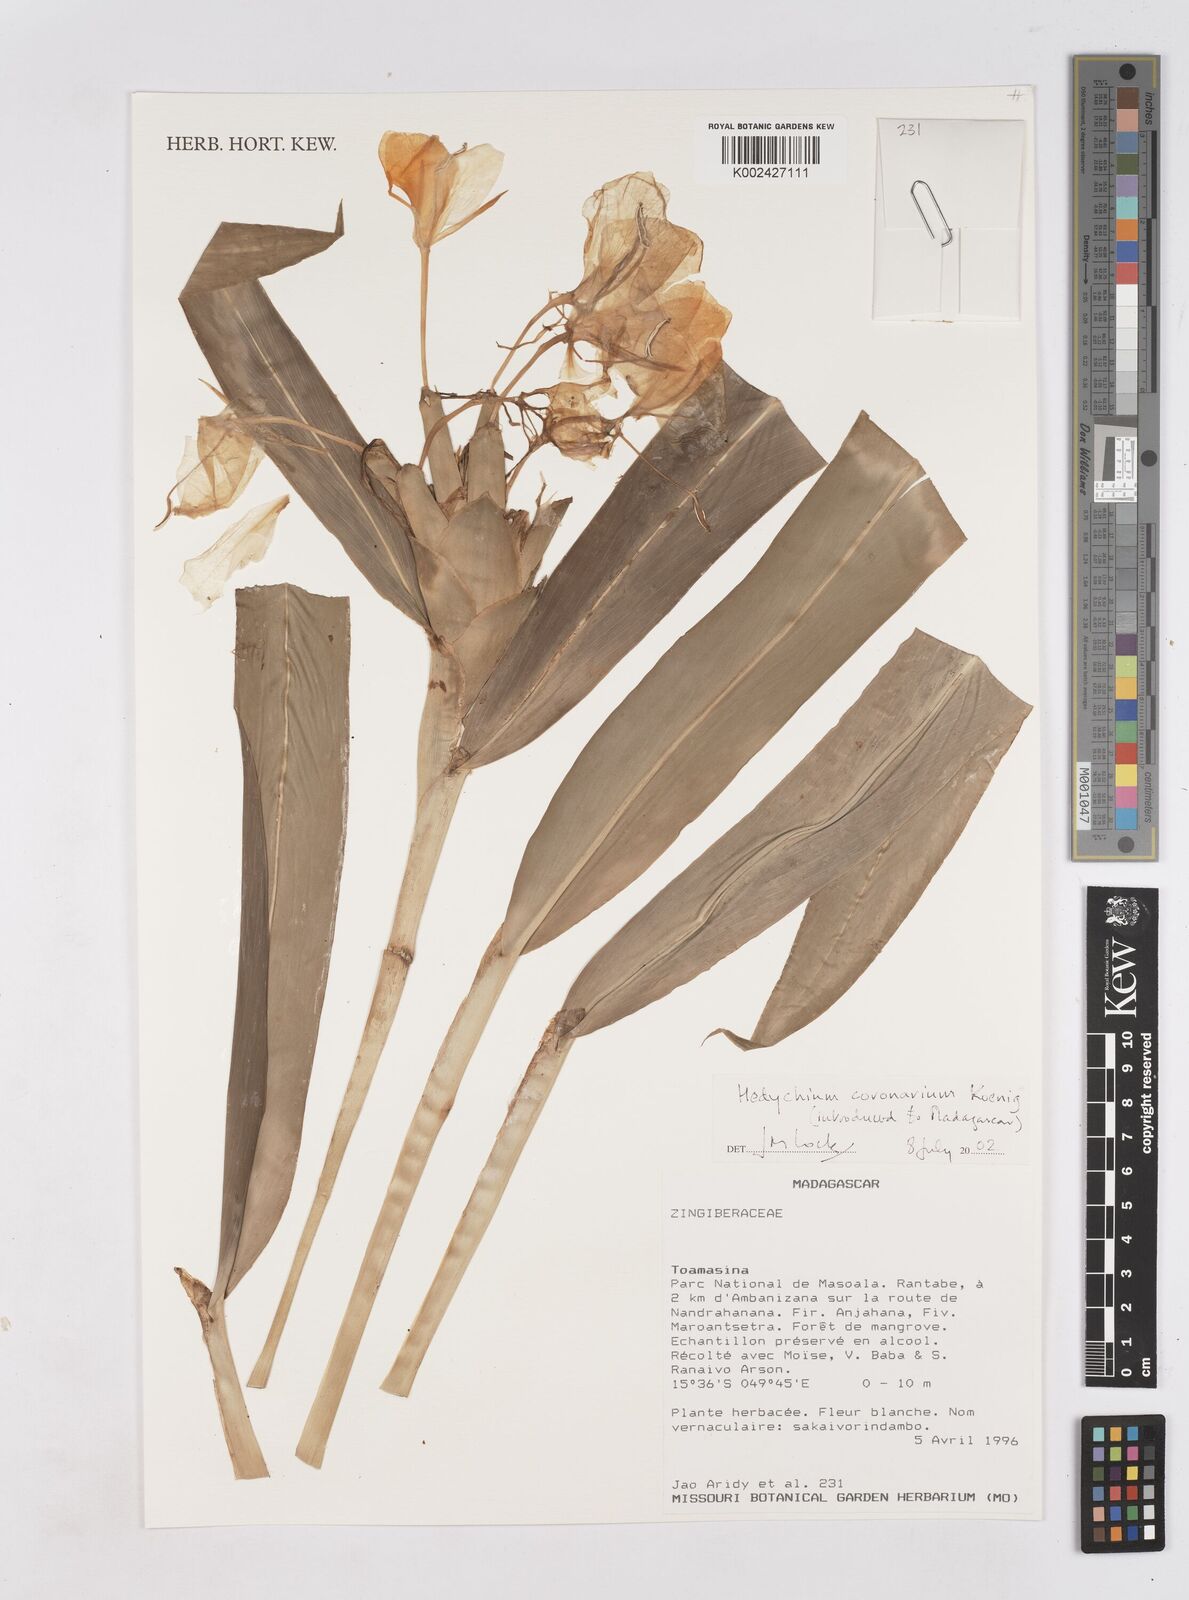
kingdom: Plantae
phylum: Tracheophyta
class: Liliopsida
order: Zingiberales
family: Zingiberaceae
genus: Hedychium
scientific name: Hedychium coronarium
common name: White garland-lily
